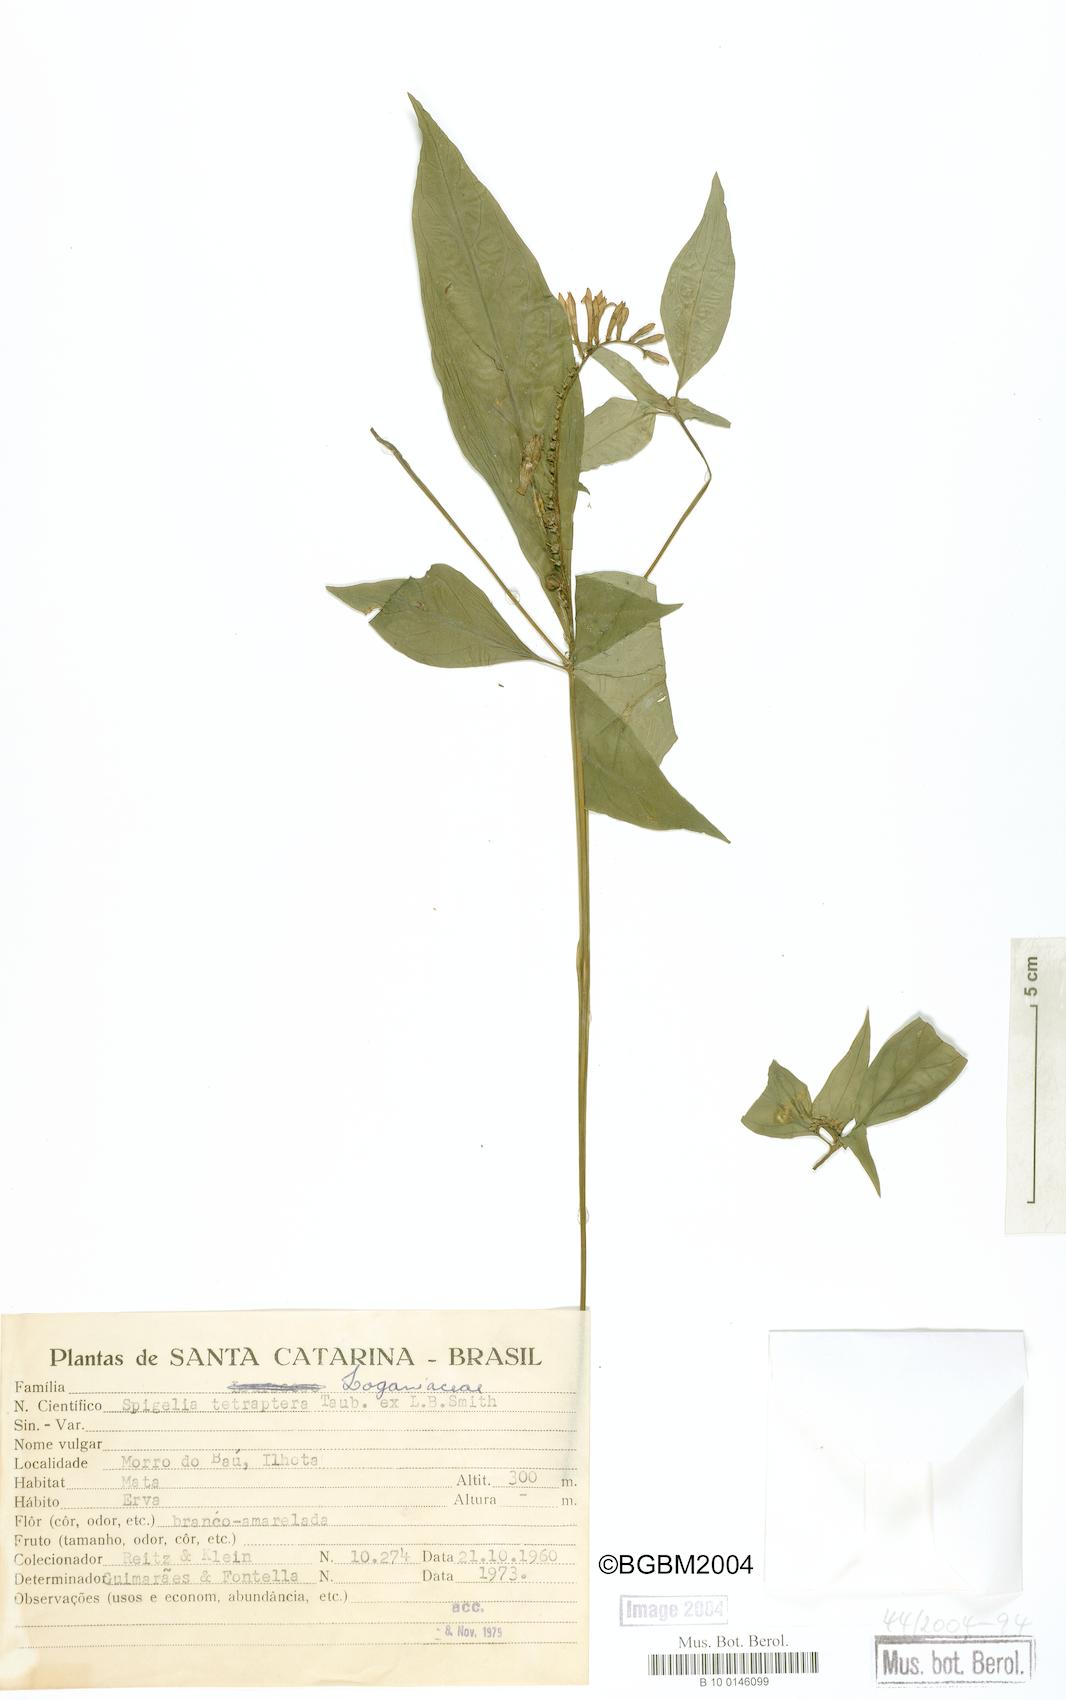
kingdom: Plantae
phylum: Tracheophyta
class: Magnoliopsida
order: Gentianales
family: Loganiaceae
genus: Spigelia
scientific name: Spigelia tetraptera
